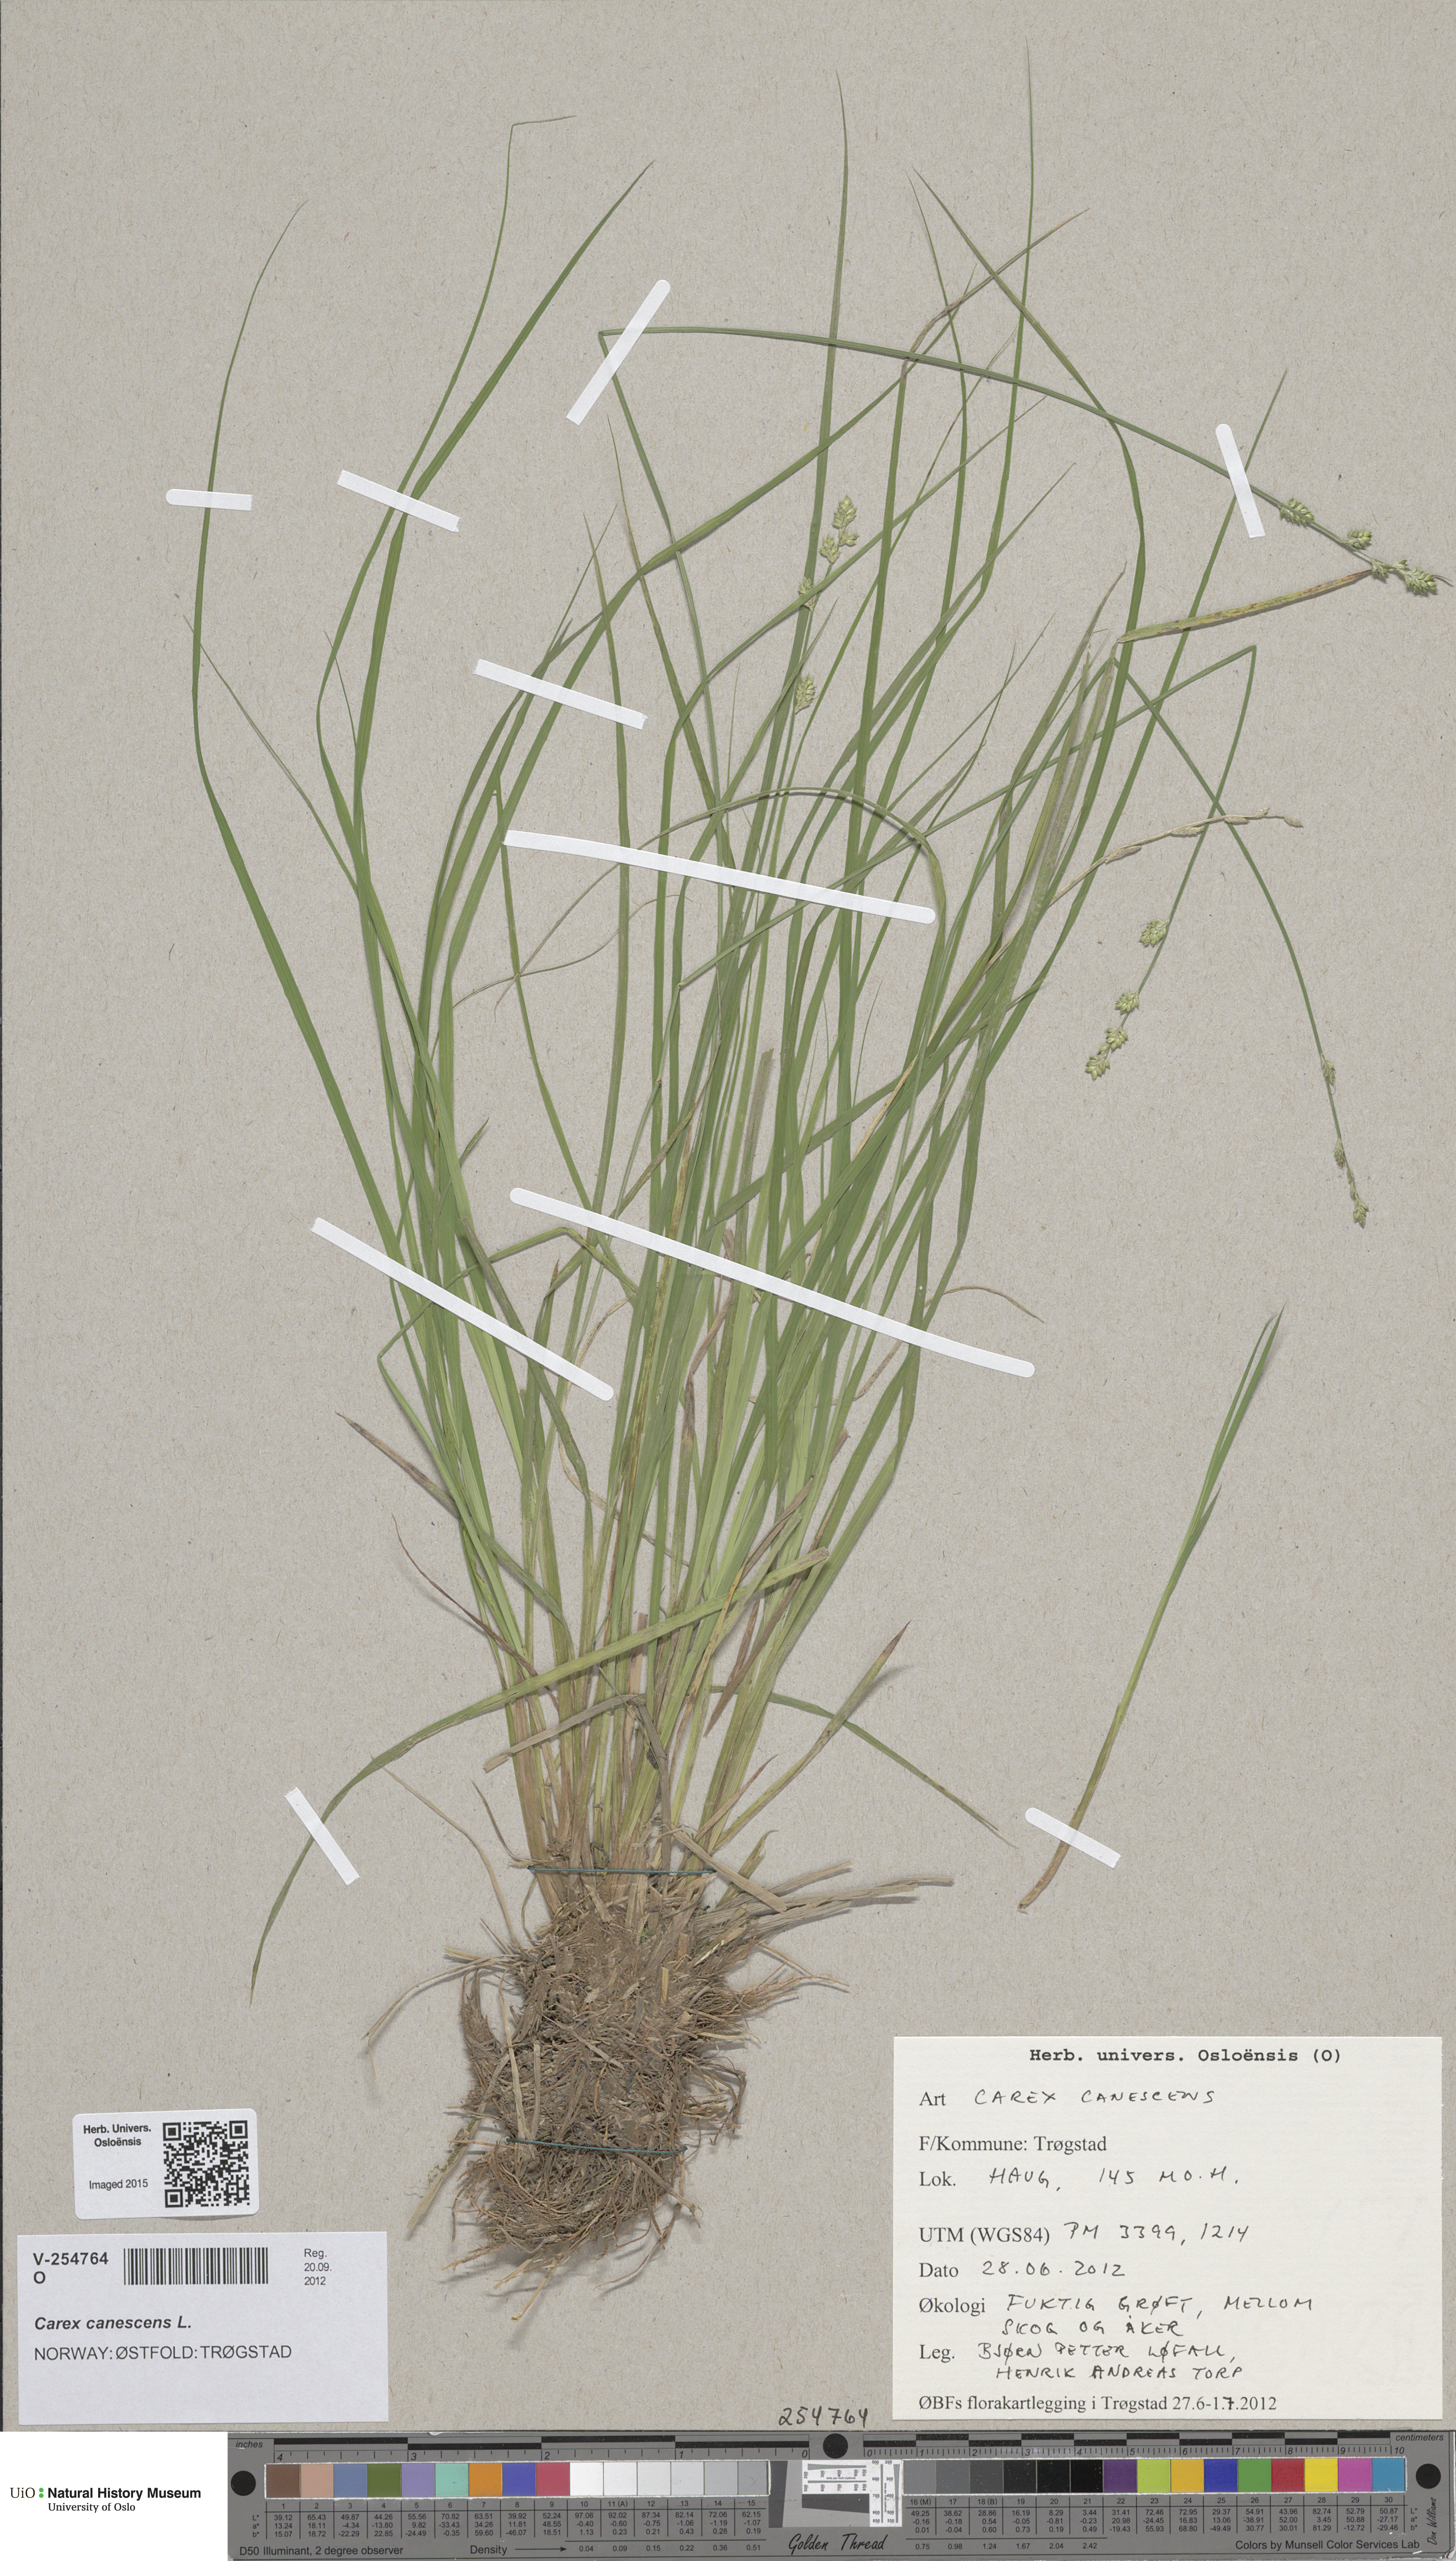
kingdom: Plantae
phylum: Tracheophyta
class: Liliopsida
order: Poales
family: Cyperaceae
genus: Carex
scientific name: Carex canescens
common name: White sedge
